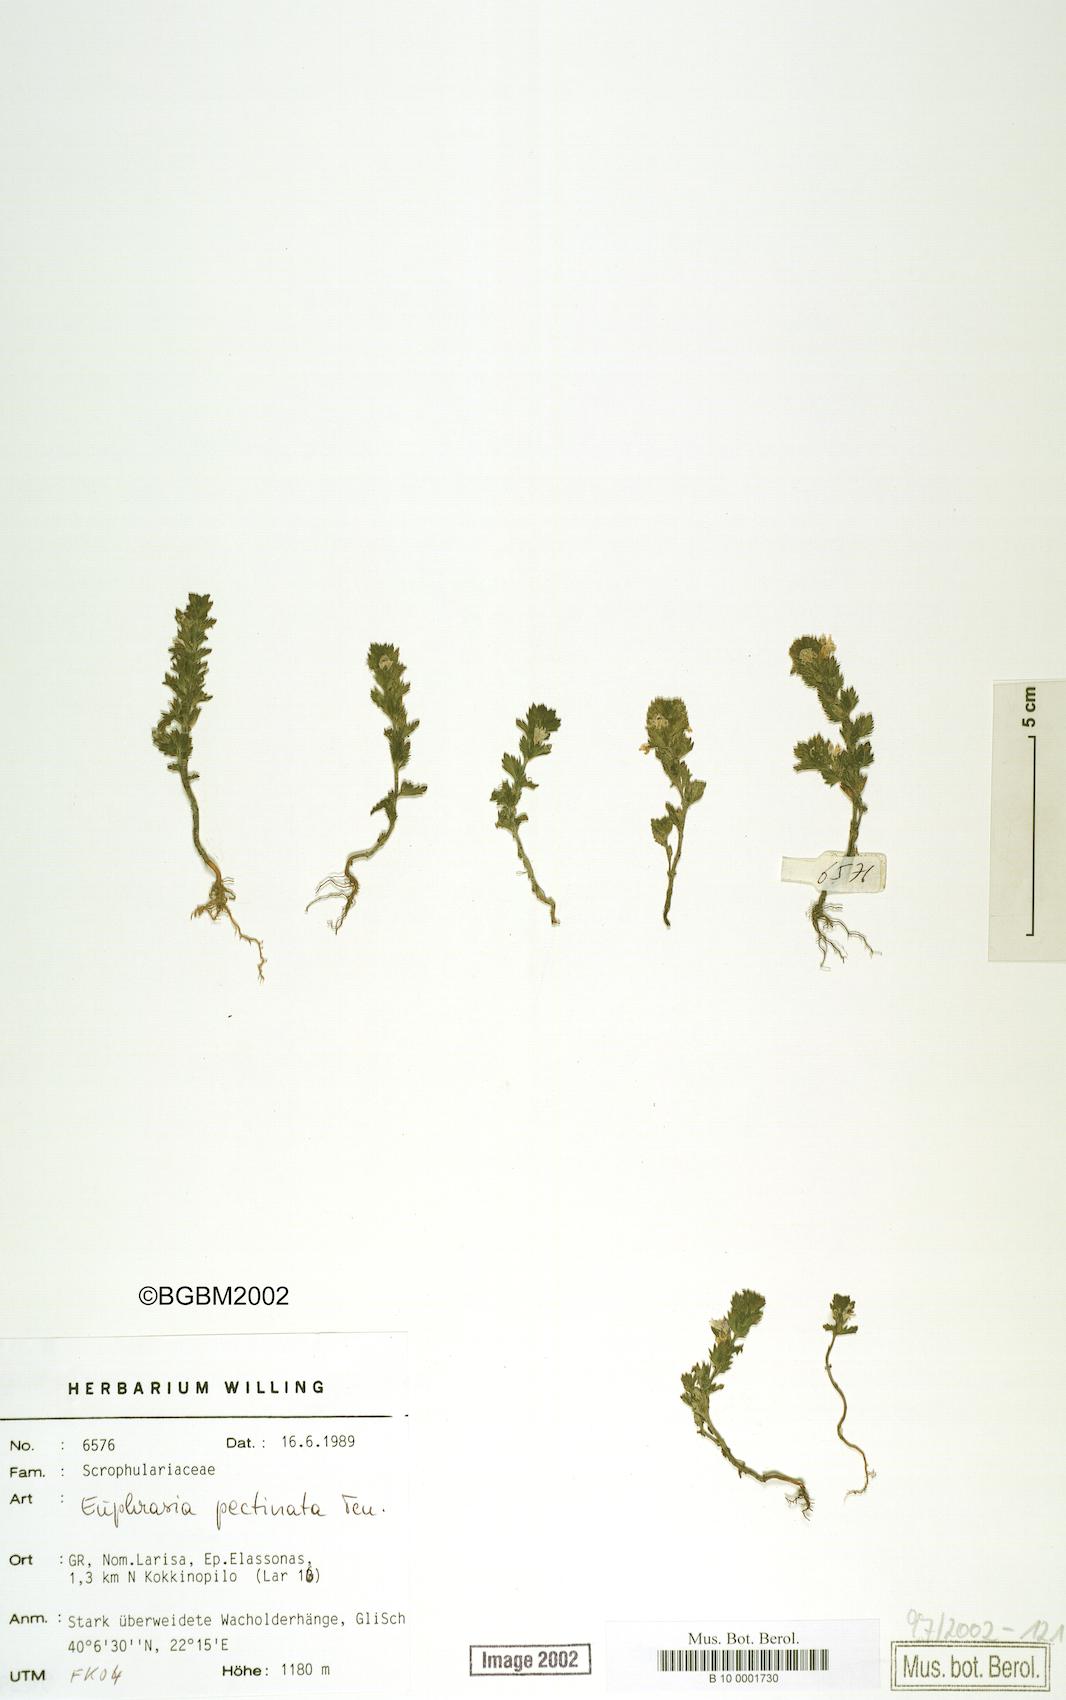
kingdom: Plantae
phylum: Tracheophyta
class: Magnoliopsida
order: Lamiales
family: Orobanchaceae
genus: Euphrasia
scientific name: Euphrasia pectinata
